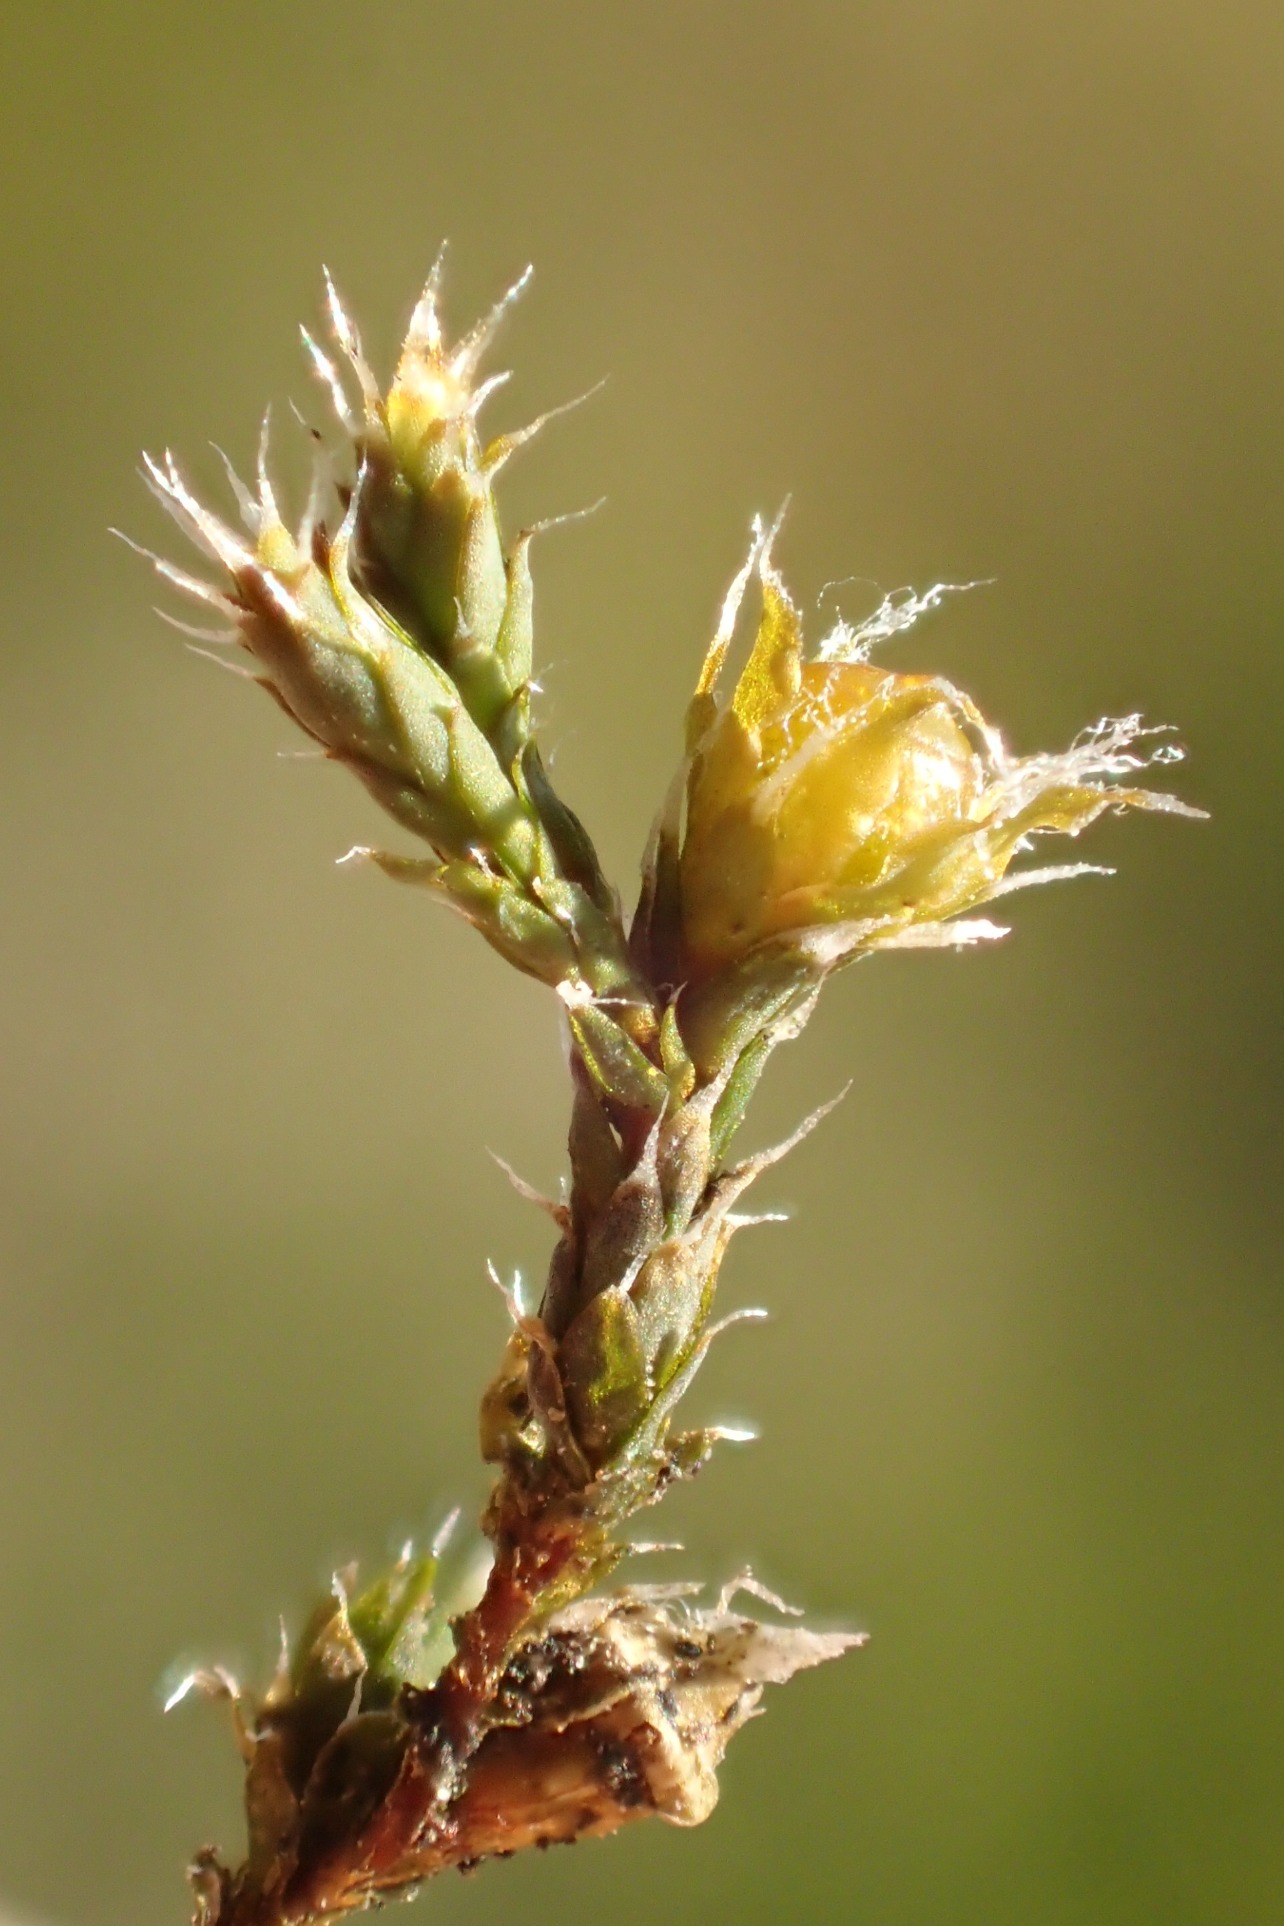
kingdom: Plantae
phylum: Bryophyta
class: Bryopsida
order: Hedwigiales
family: Hedwigiaceae
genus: Hedwigia
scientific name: Hedwigia stellata
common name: Stjernebladet hedwigia
